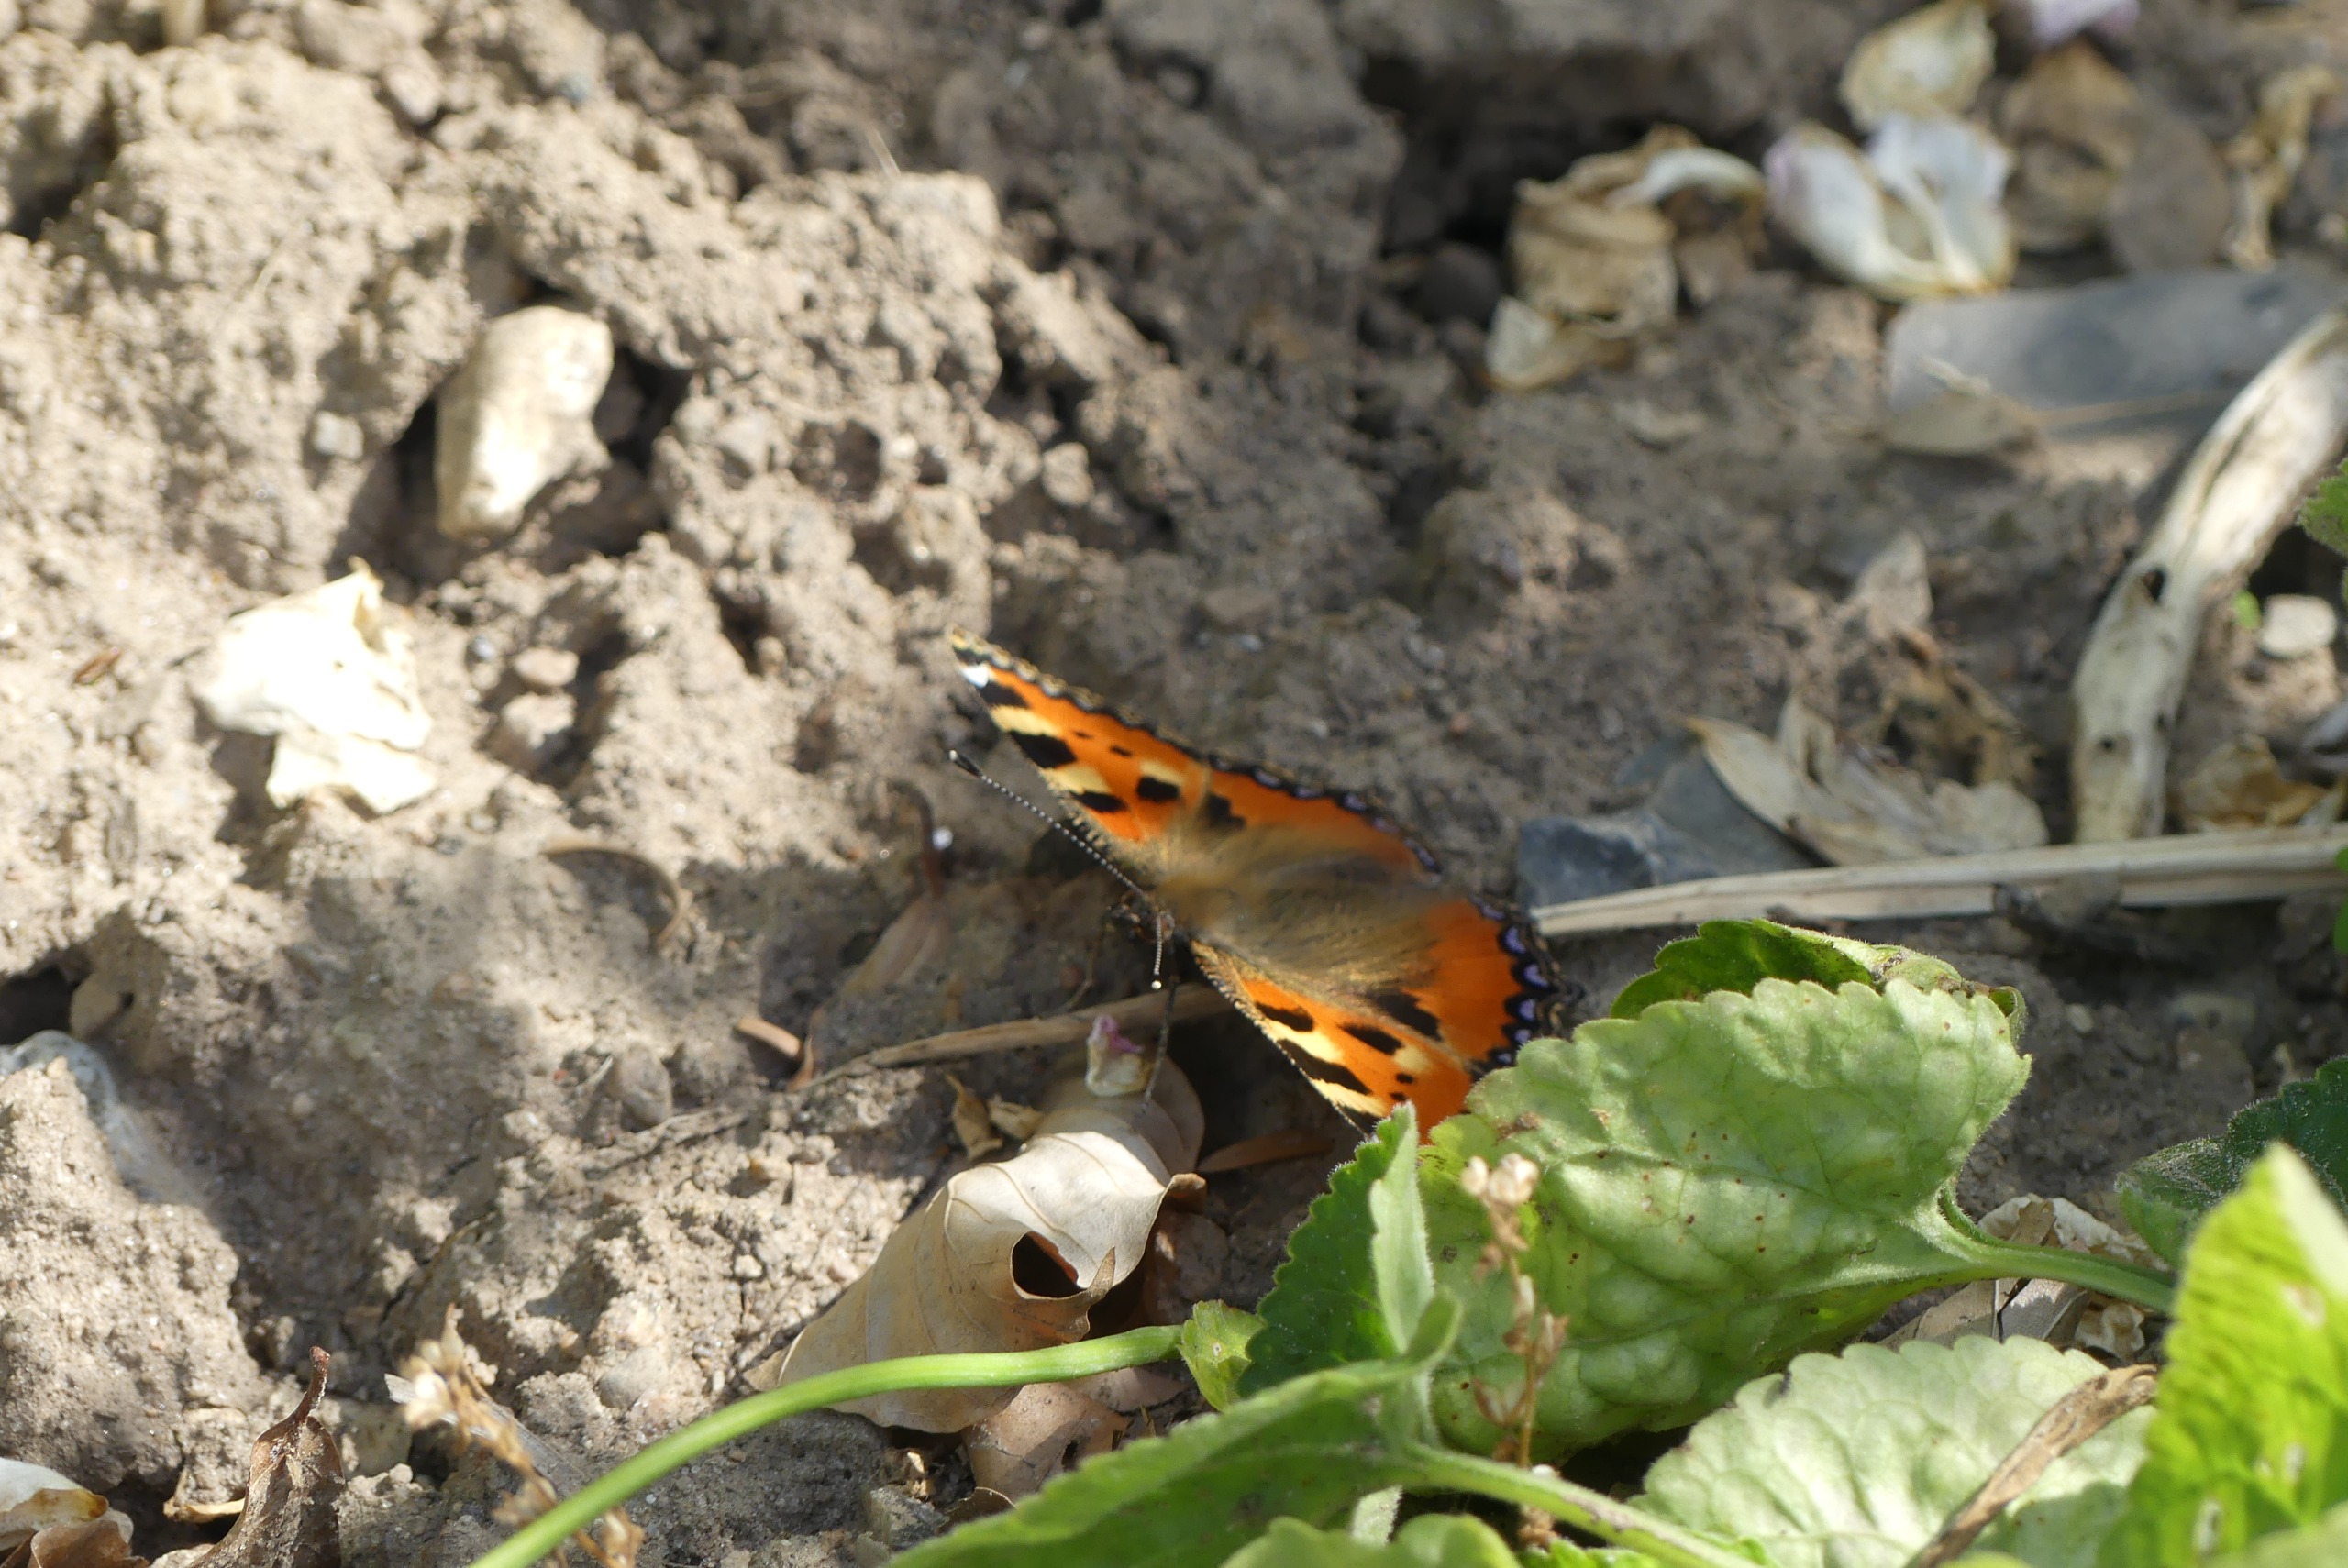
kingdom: Animalia
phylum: Arthropoda
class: Insecta
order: Lepidoptera
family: Nymphalidae
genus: Aglais
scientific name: Aglais urticae
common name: Nældens takvinge
